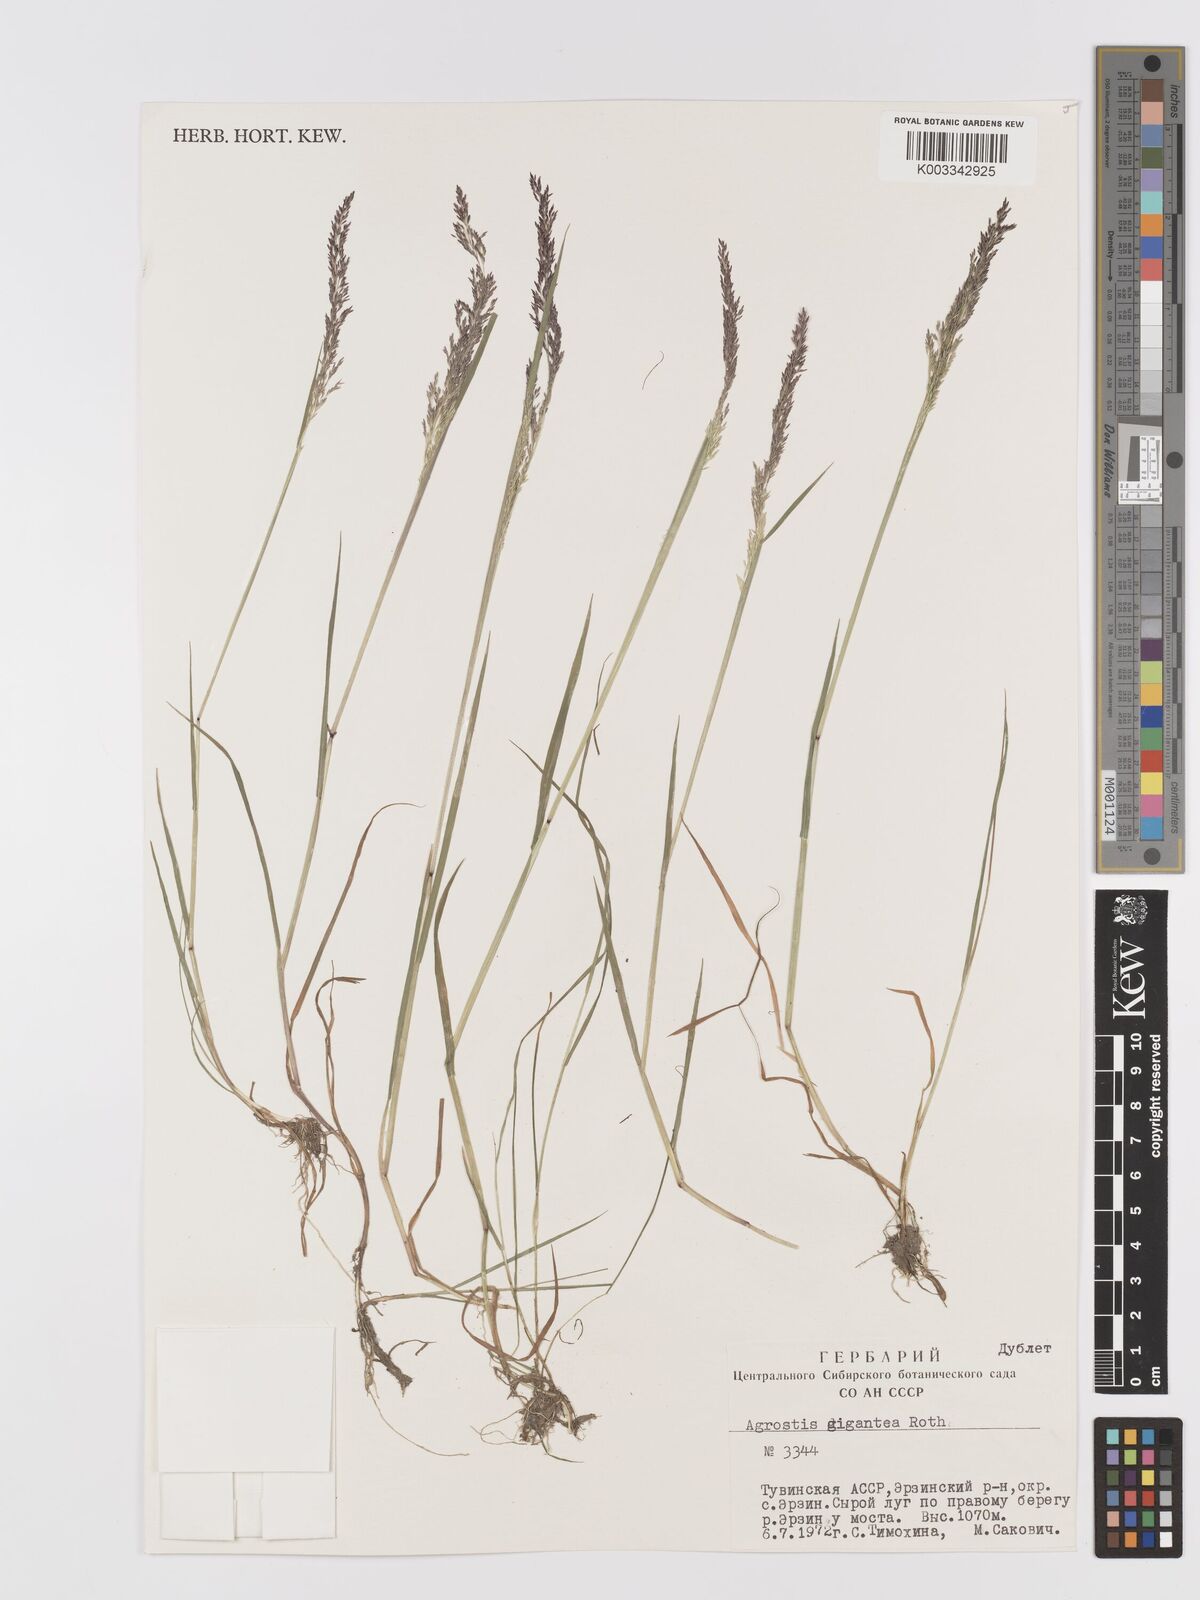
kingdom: Plantae
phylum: Tracheophyta
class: Liliopsida
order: Poales
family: Poaceae
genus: Agrostis
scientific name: Agrostis gigantea
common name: Black bent
